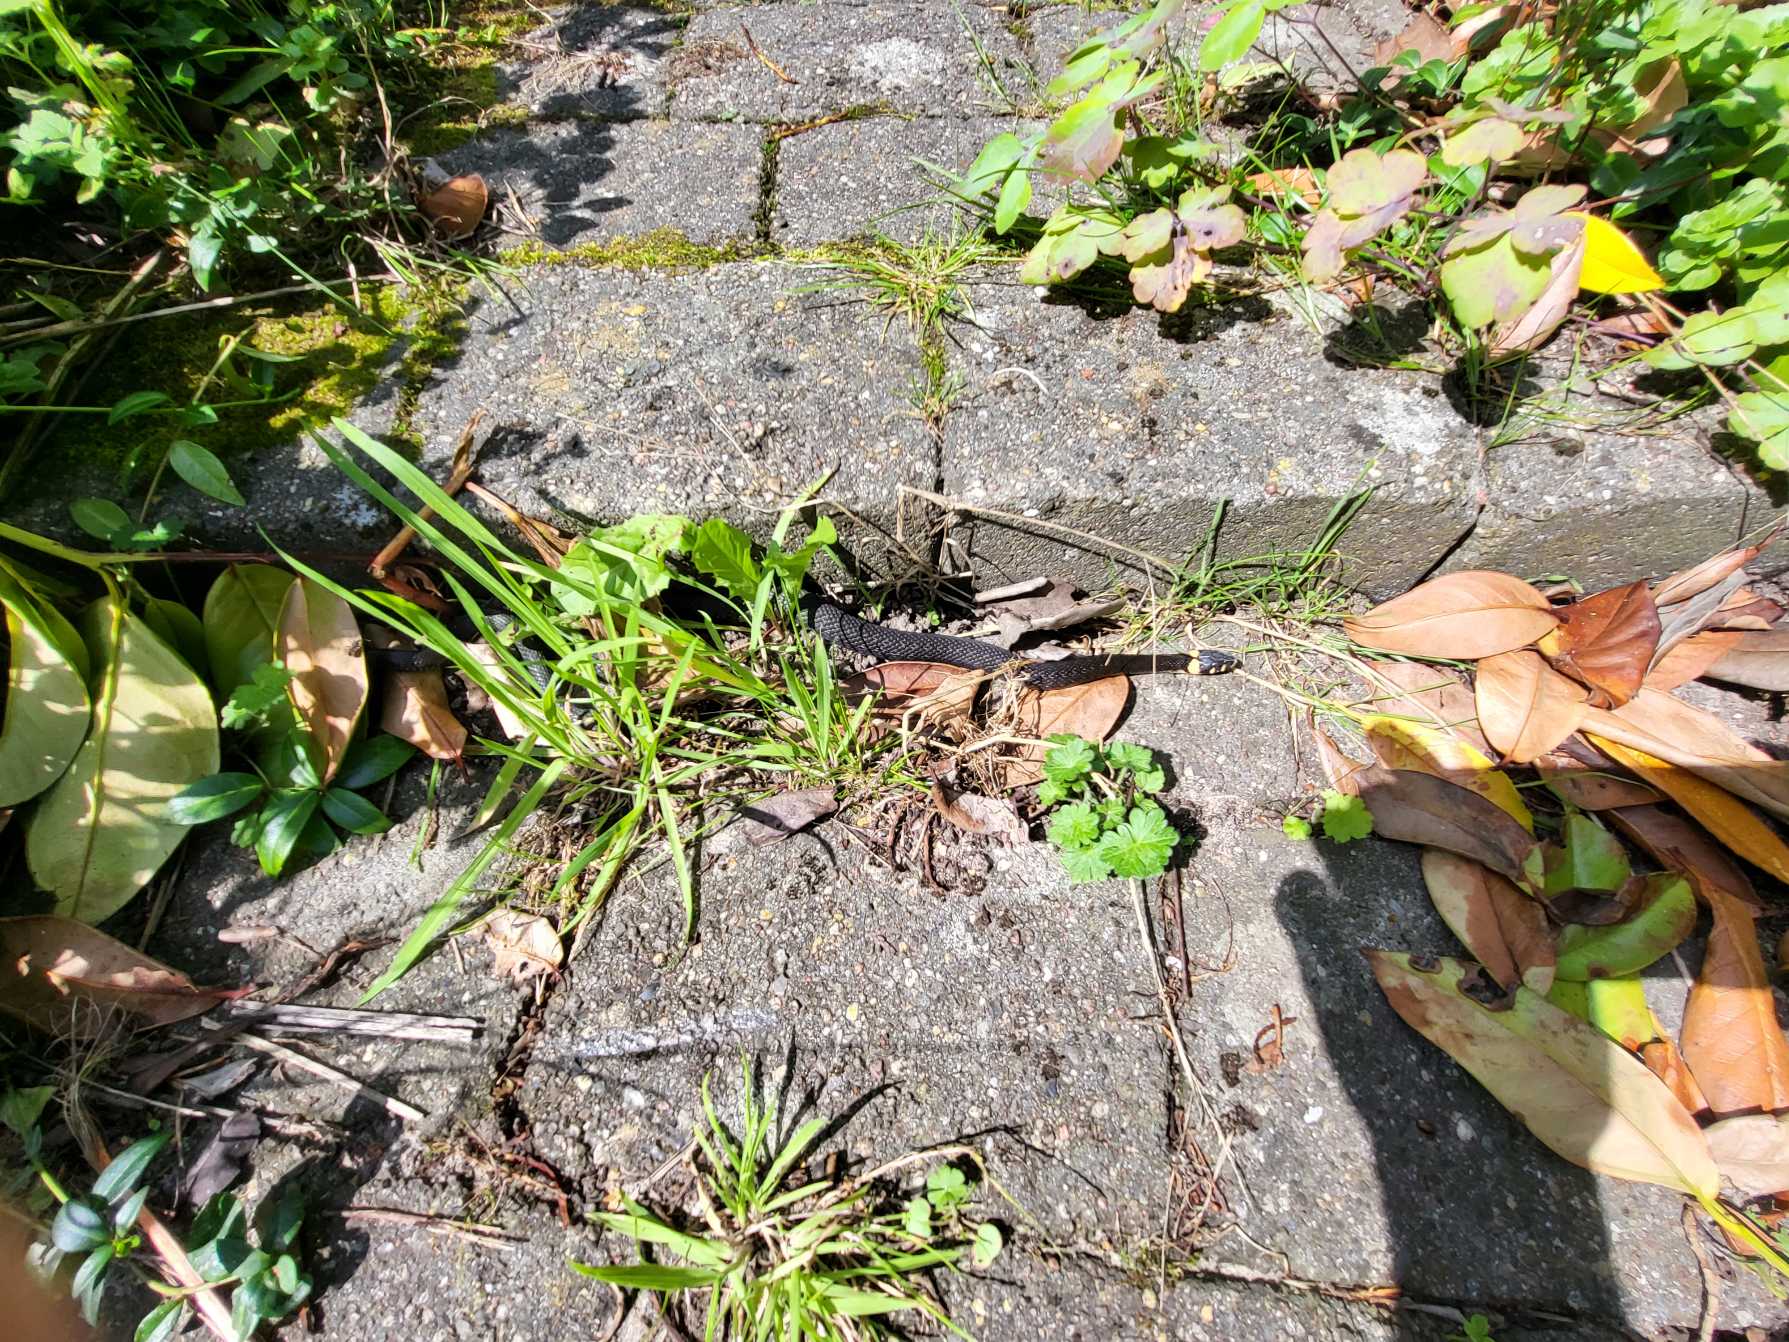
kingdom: Animalia
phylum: Chordata
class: Squamata
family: Colubridae
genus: Natrix
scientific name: Natrix natrix
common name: Snog
